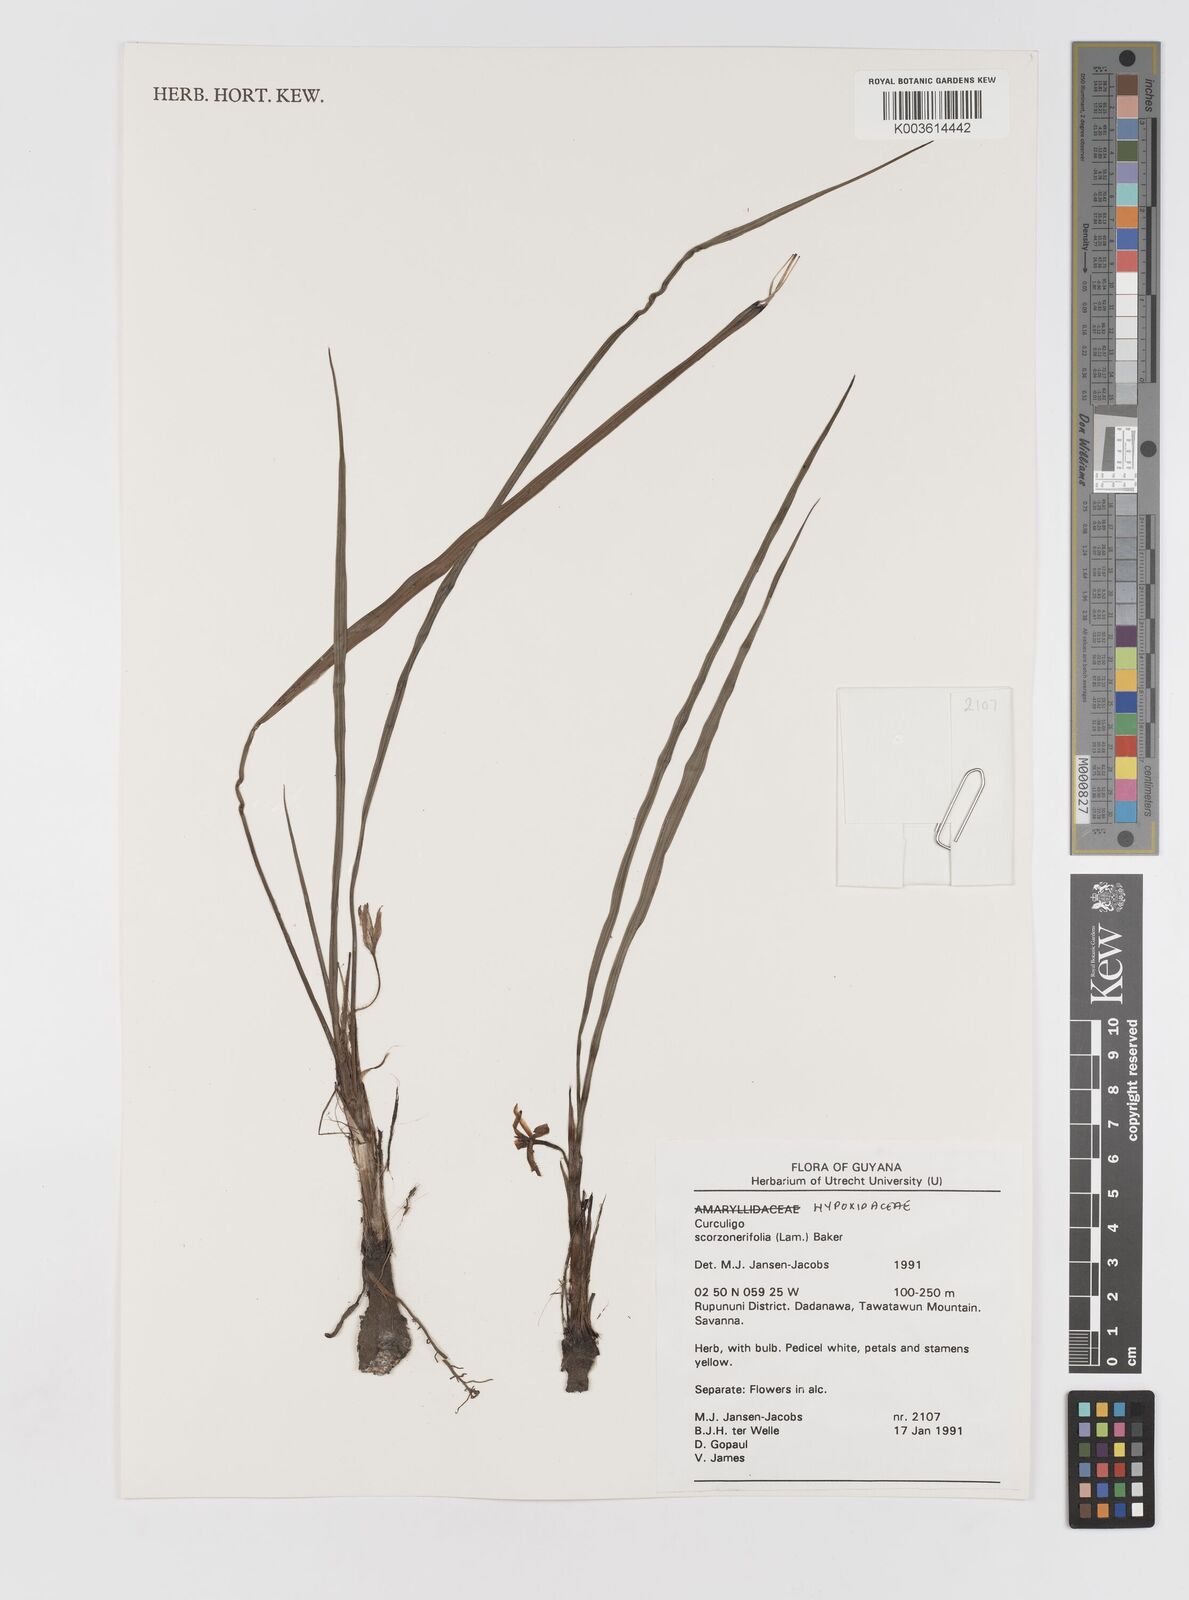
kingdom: Plantae
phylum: Tracheophyta
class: Liliopsida
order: Asparagales
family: Hypoxidaceae
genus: Curculigo
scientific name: Curculigo scorzonerifolia
